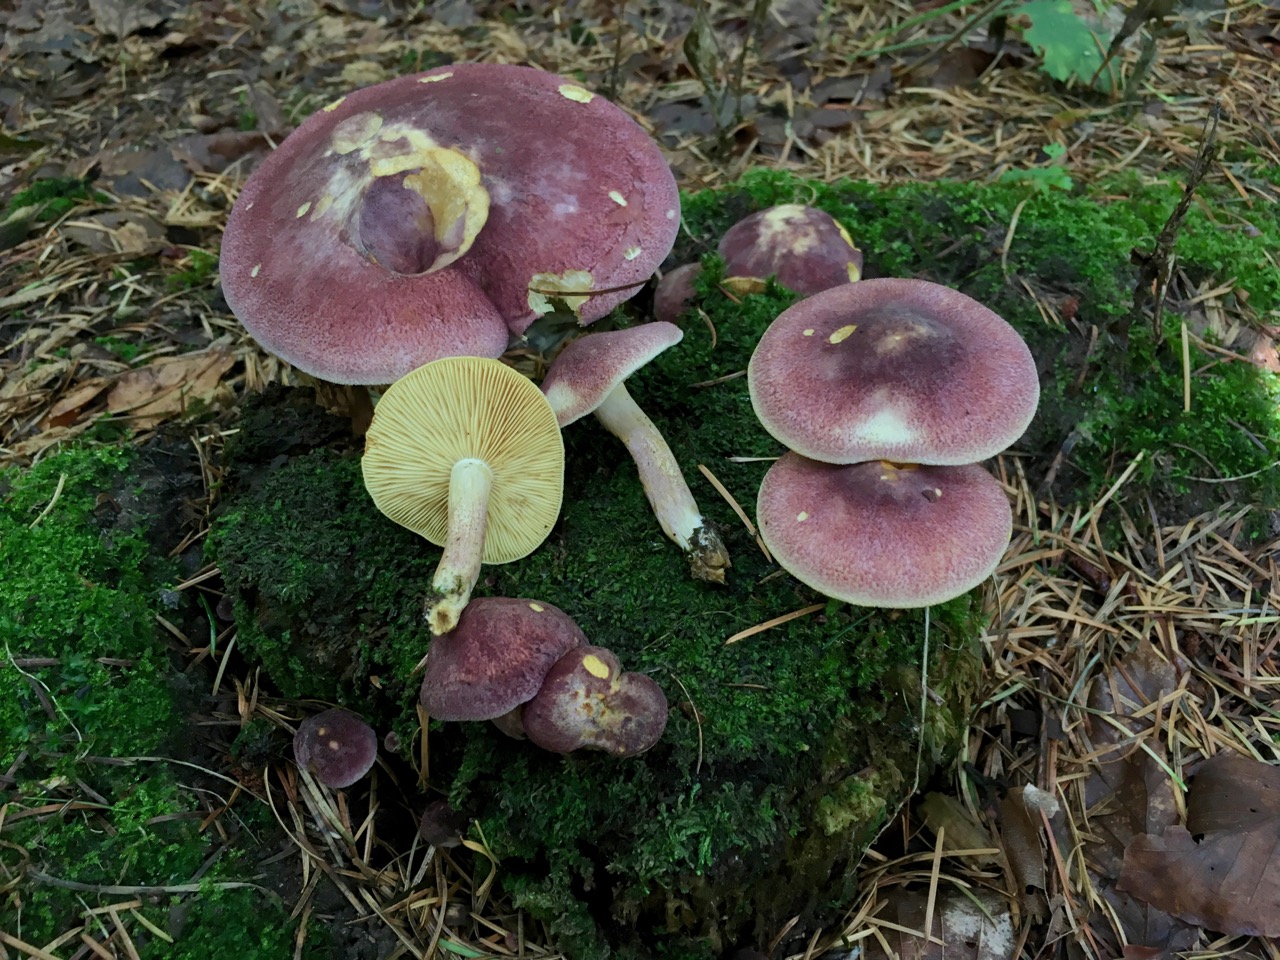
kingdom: Fungi
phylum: Basidiomycota
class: Agaricomycetes
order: Agaricales
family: Tricholomataceae
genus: Tricholomopsis
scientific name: Tricholomopsis rutilans
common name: purpur-væbnerhat
